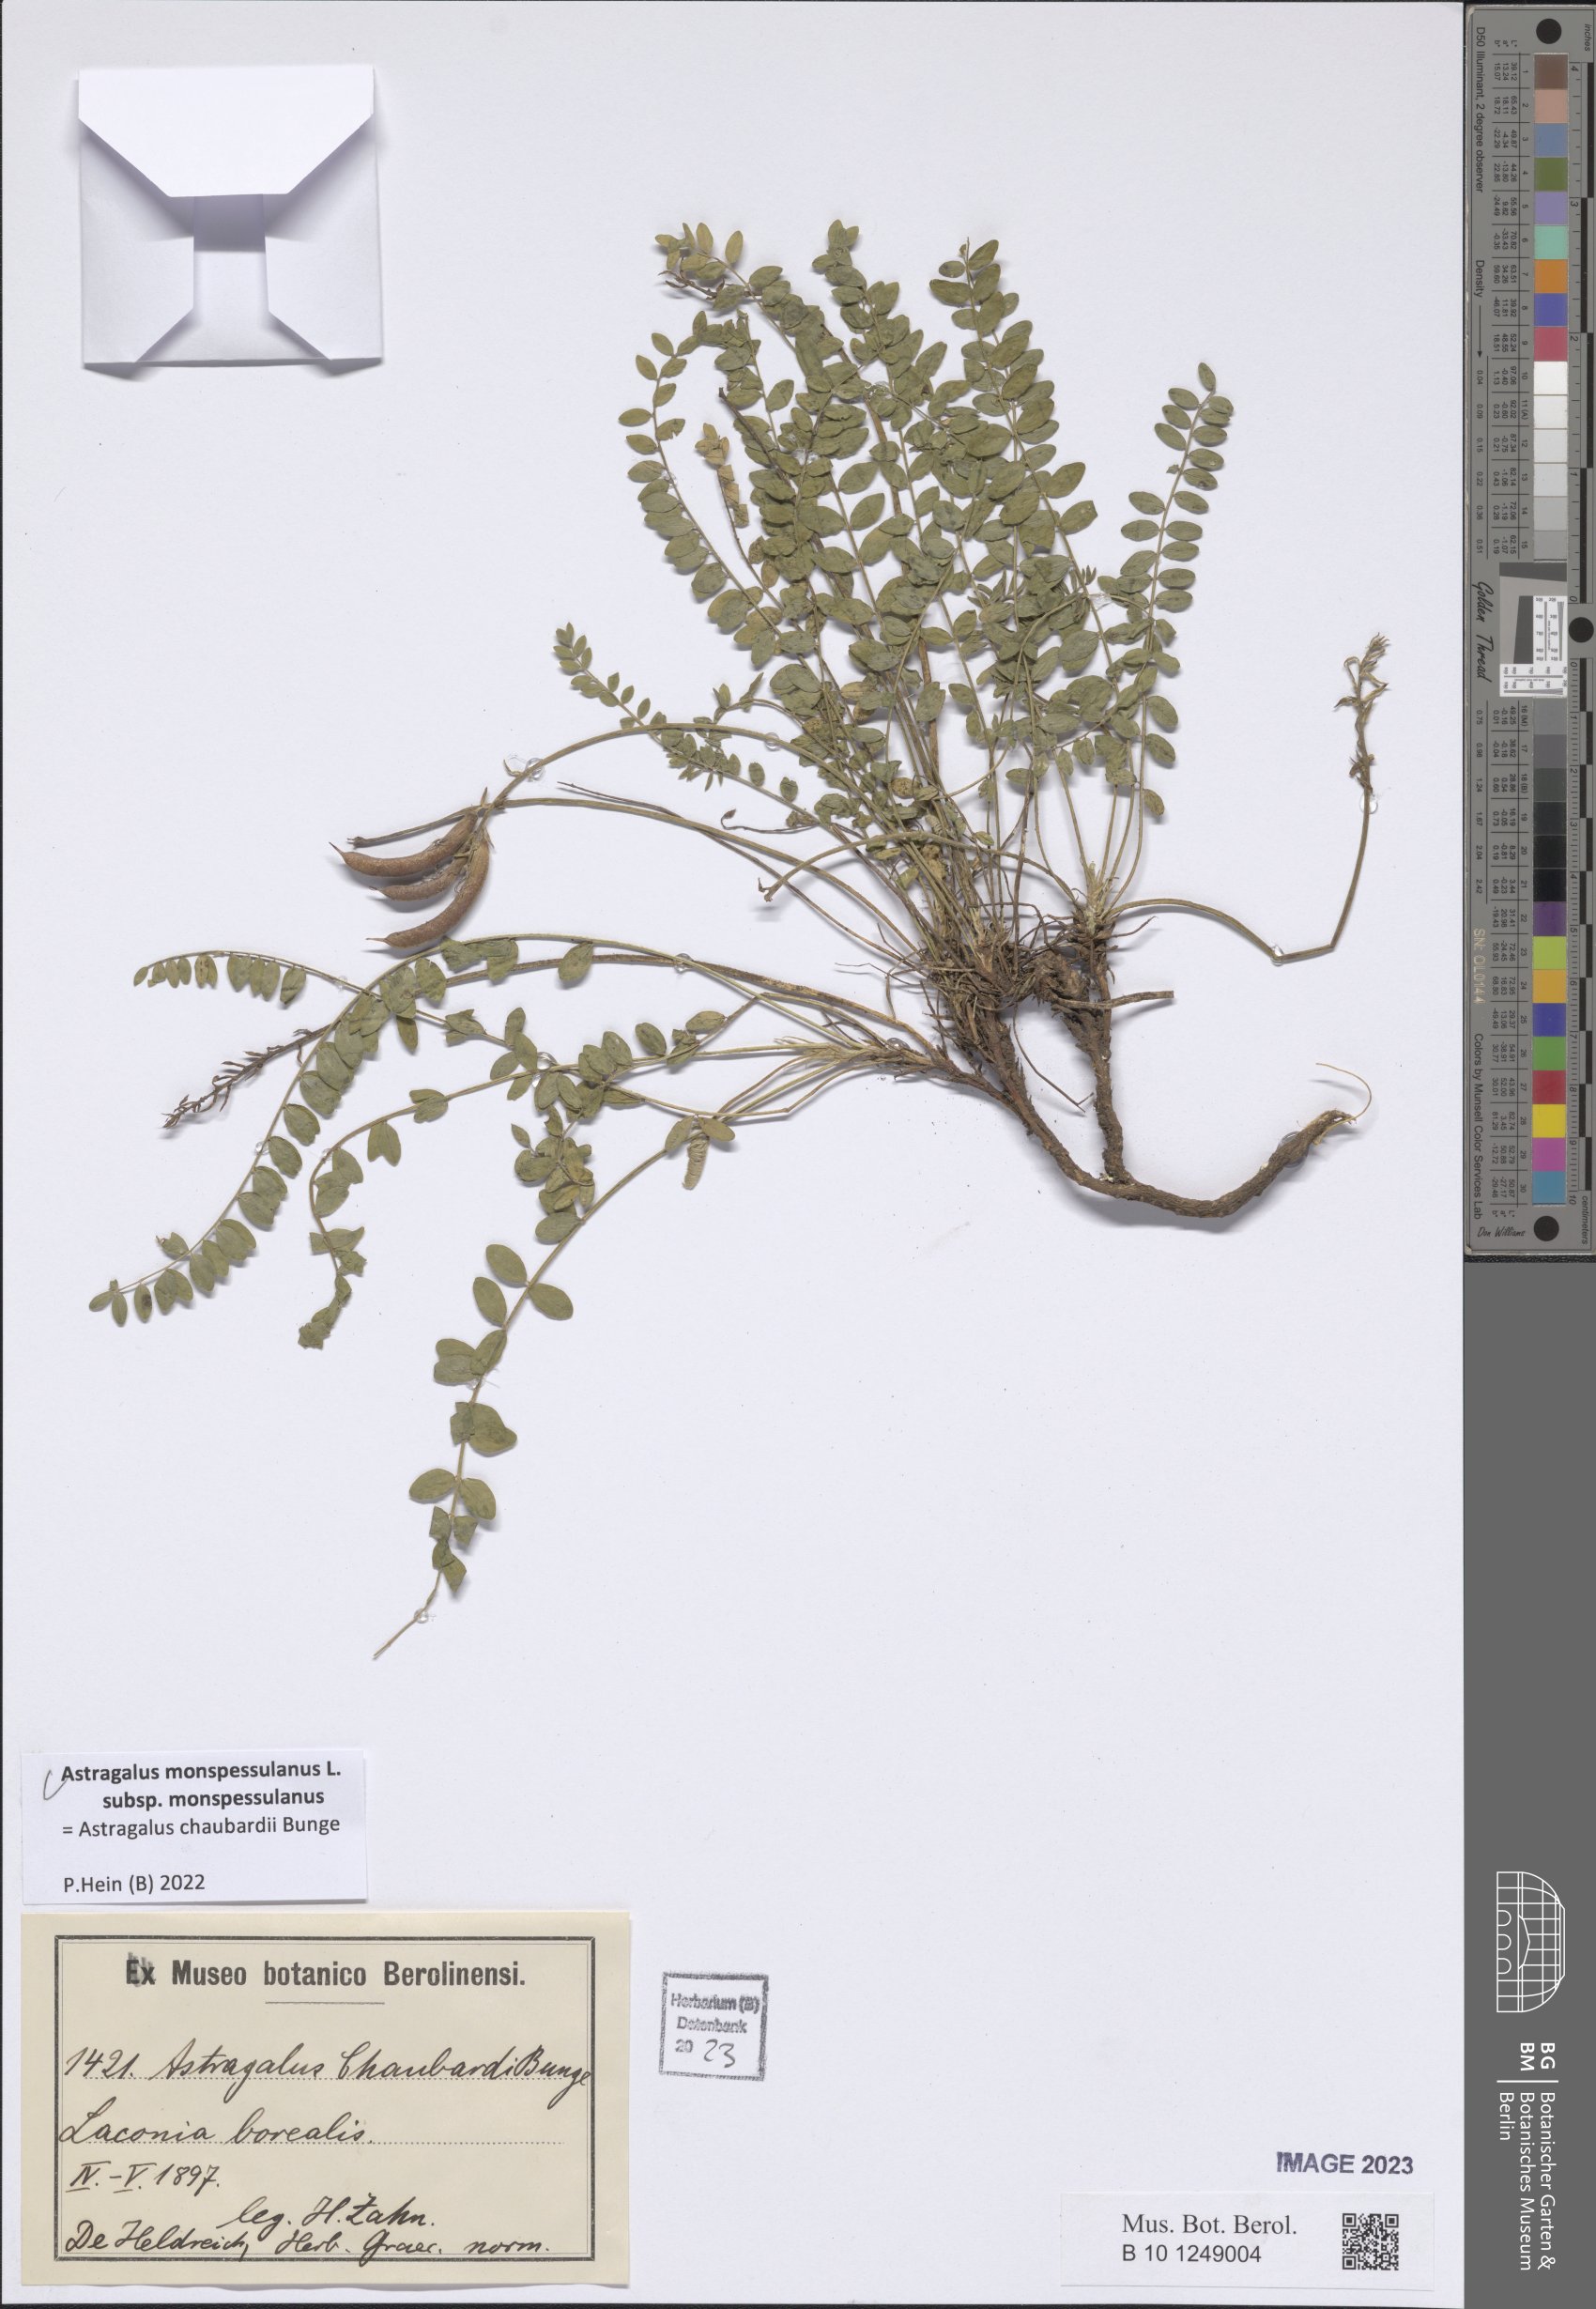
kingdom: Plantae
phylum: Tracheophyta
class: Magnoliopsida
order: Fabales
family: Fabaceae
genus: Astragalus
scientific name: Astragalus monspessulanus
